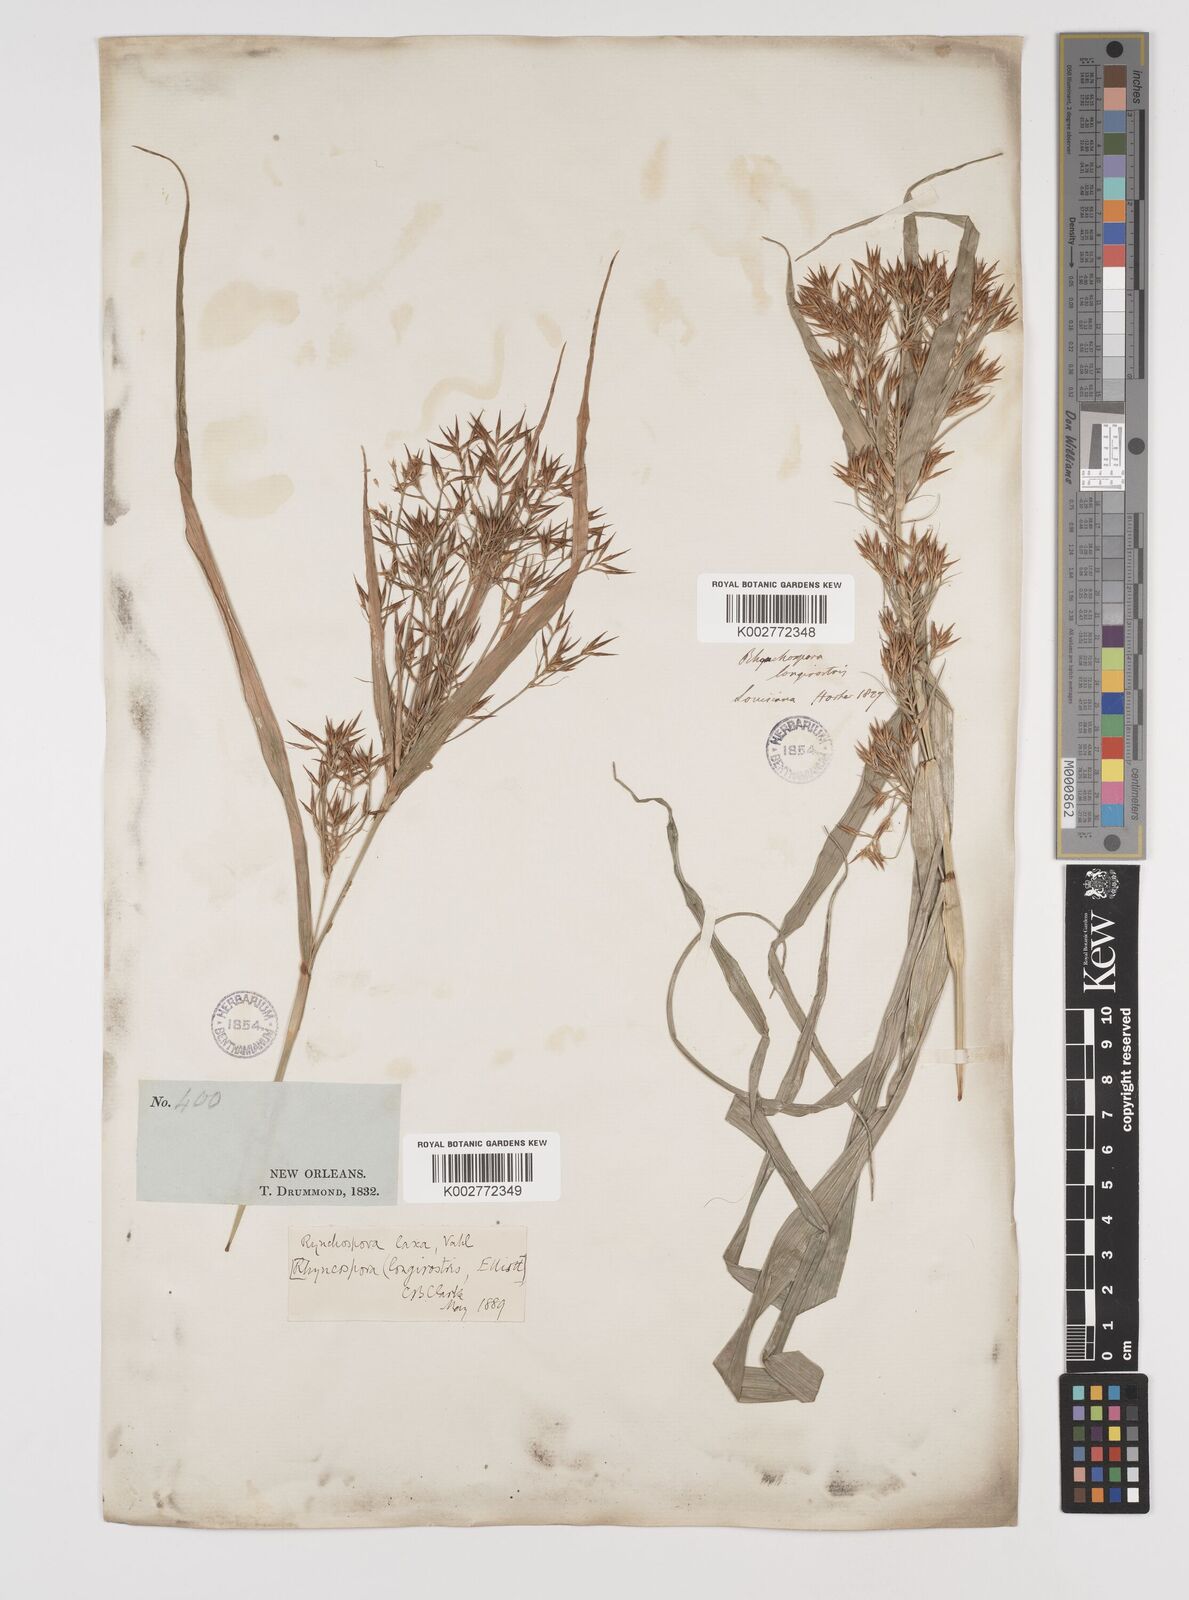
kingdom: Plantae
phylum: Tracheophyta
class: Liliopsida
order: Poales
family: Cyperaceae
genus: Rhynchospora
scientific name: Rhynchospora corniculata
